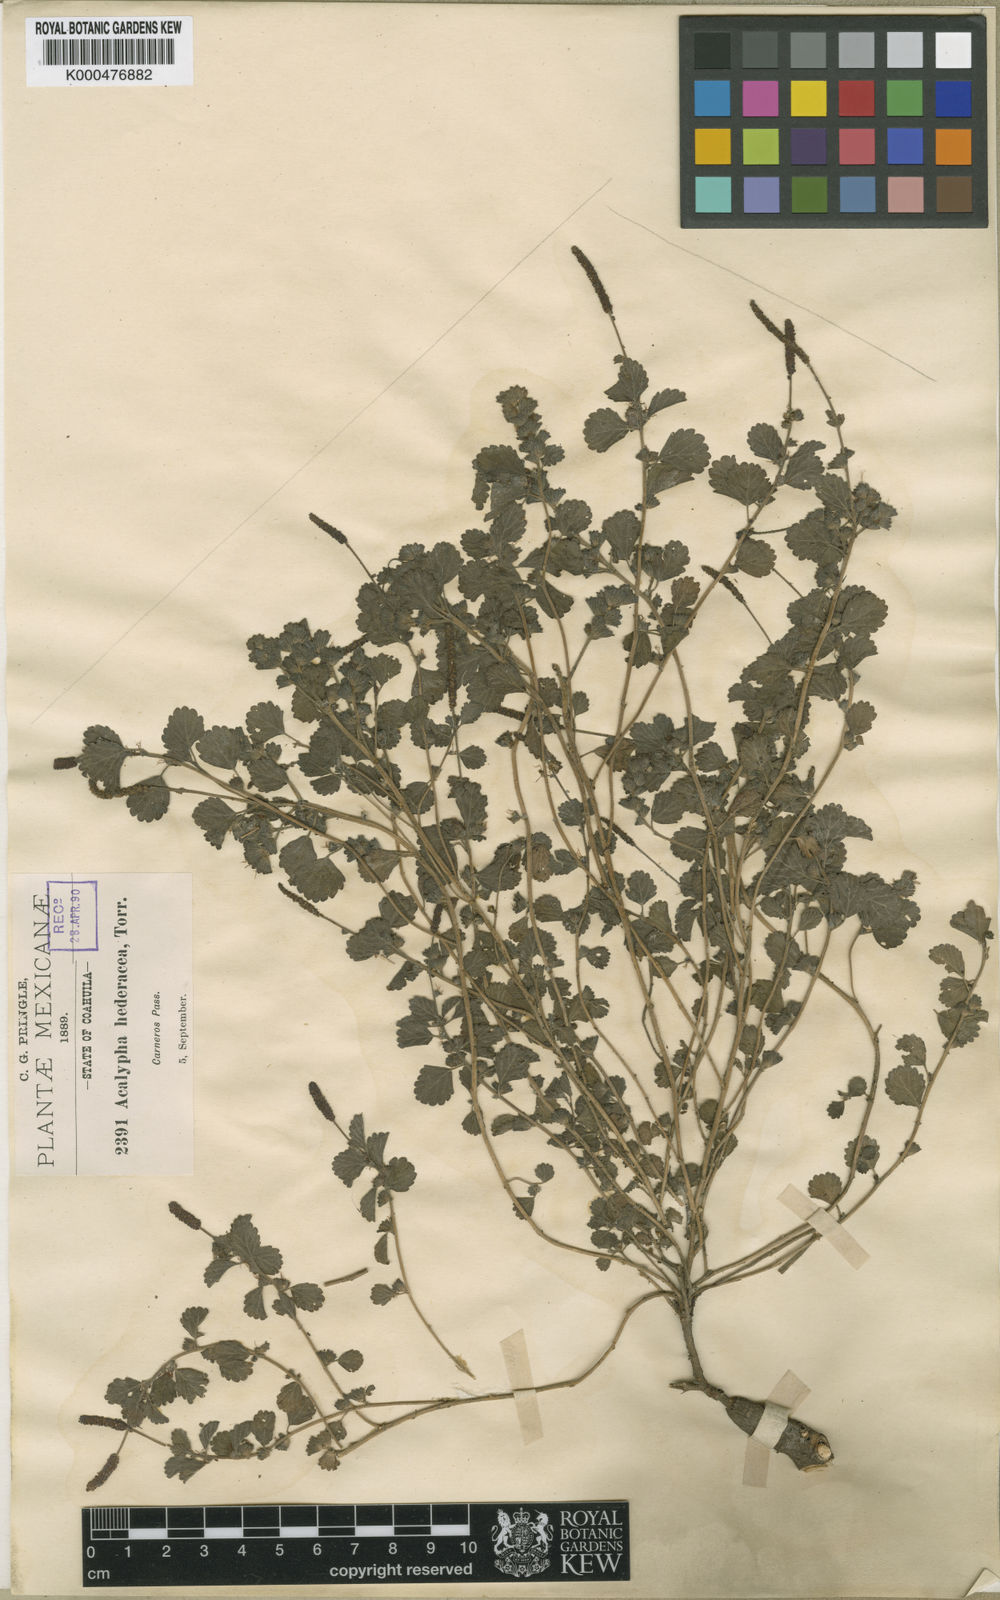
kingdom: Plantae
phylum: Tracheophyta
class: Magnoliopsida
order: Malpighiales
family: Euphorbiaceae
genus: Acalypha
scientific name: Acalypha anemioides
